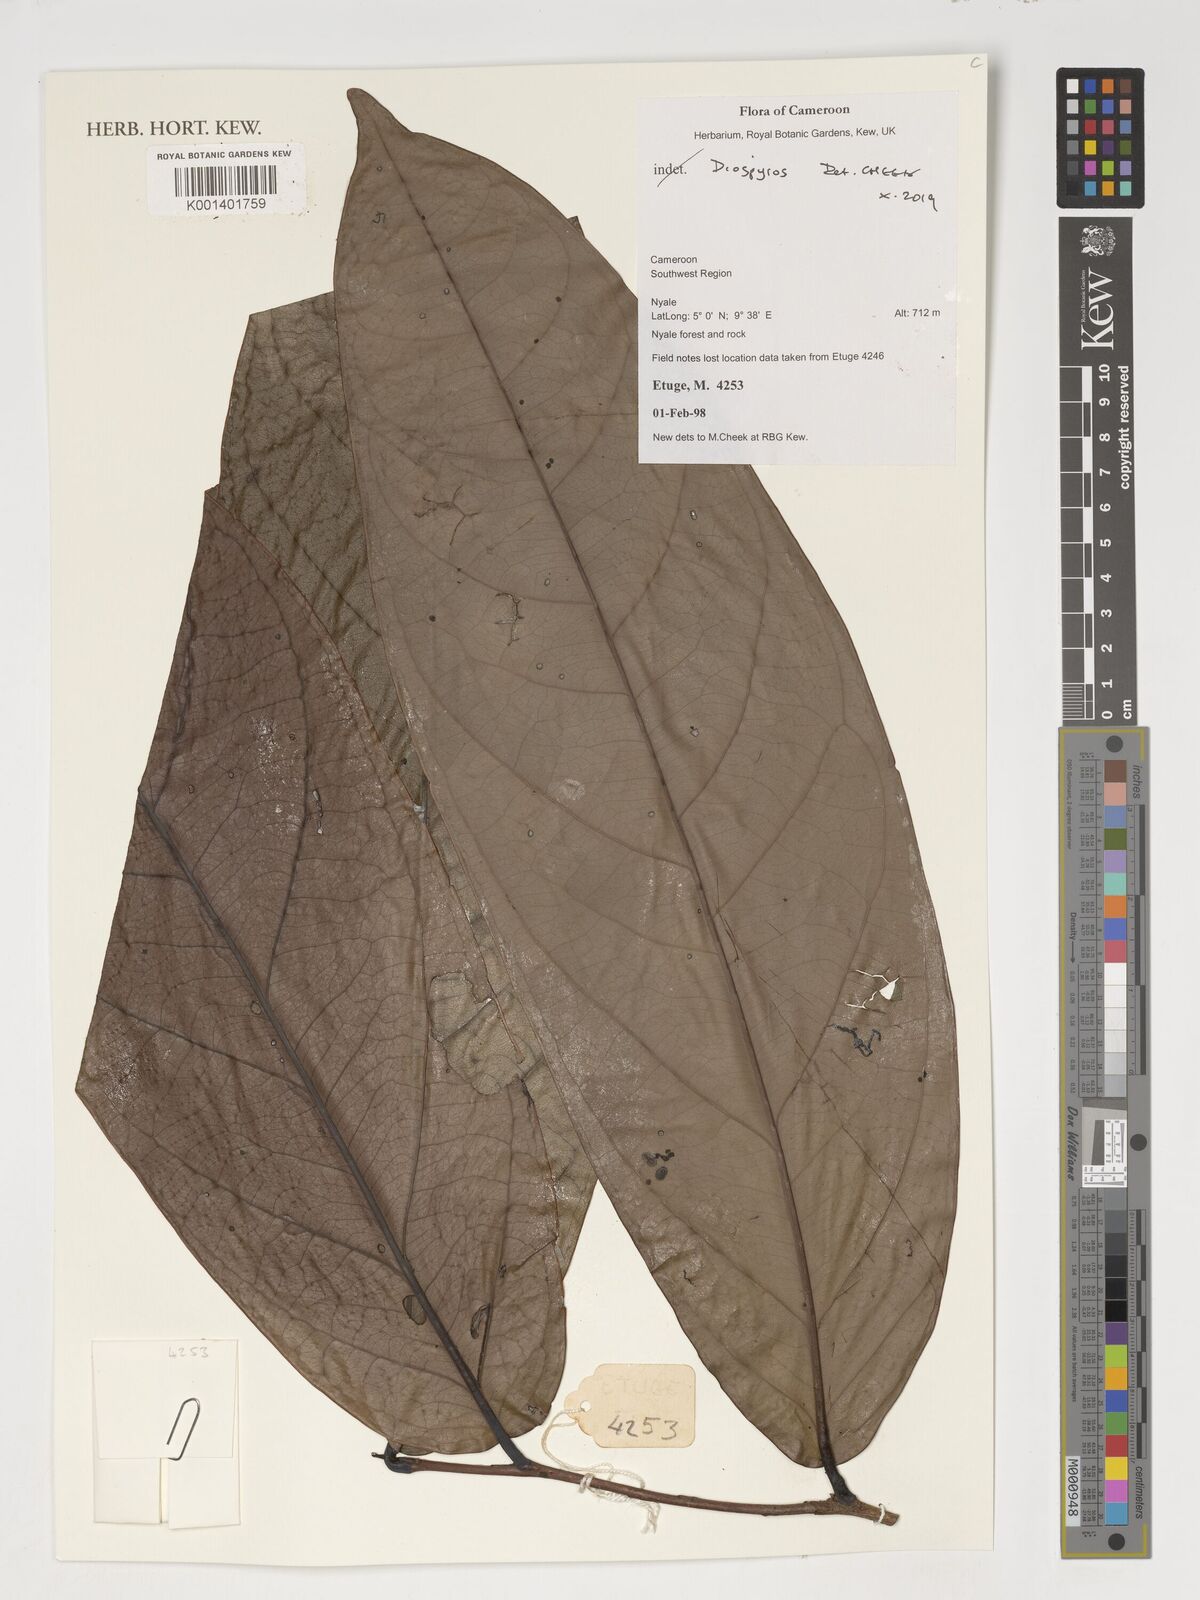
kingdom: Plantae
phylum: Tracheophyta
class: Magnoliopsida
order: Ericales
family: Ebenaceae
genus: Diospyros
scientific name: Diospyros
